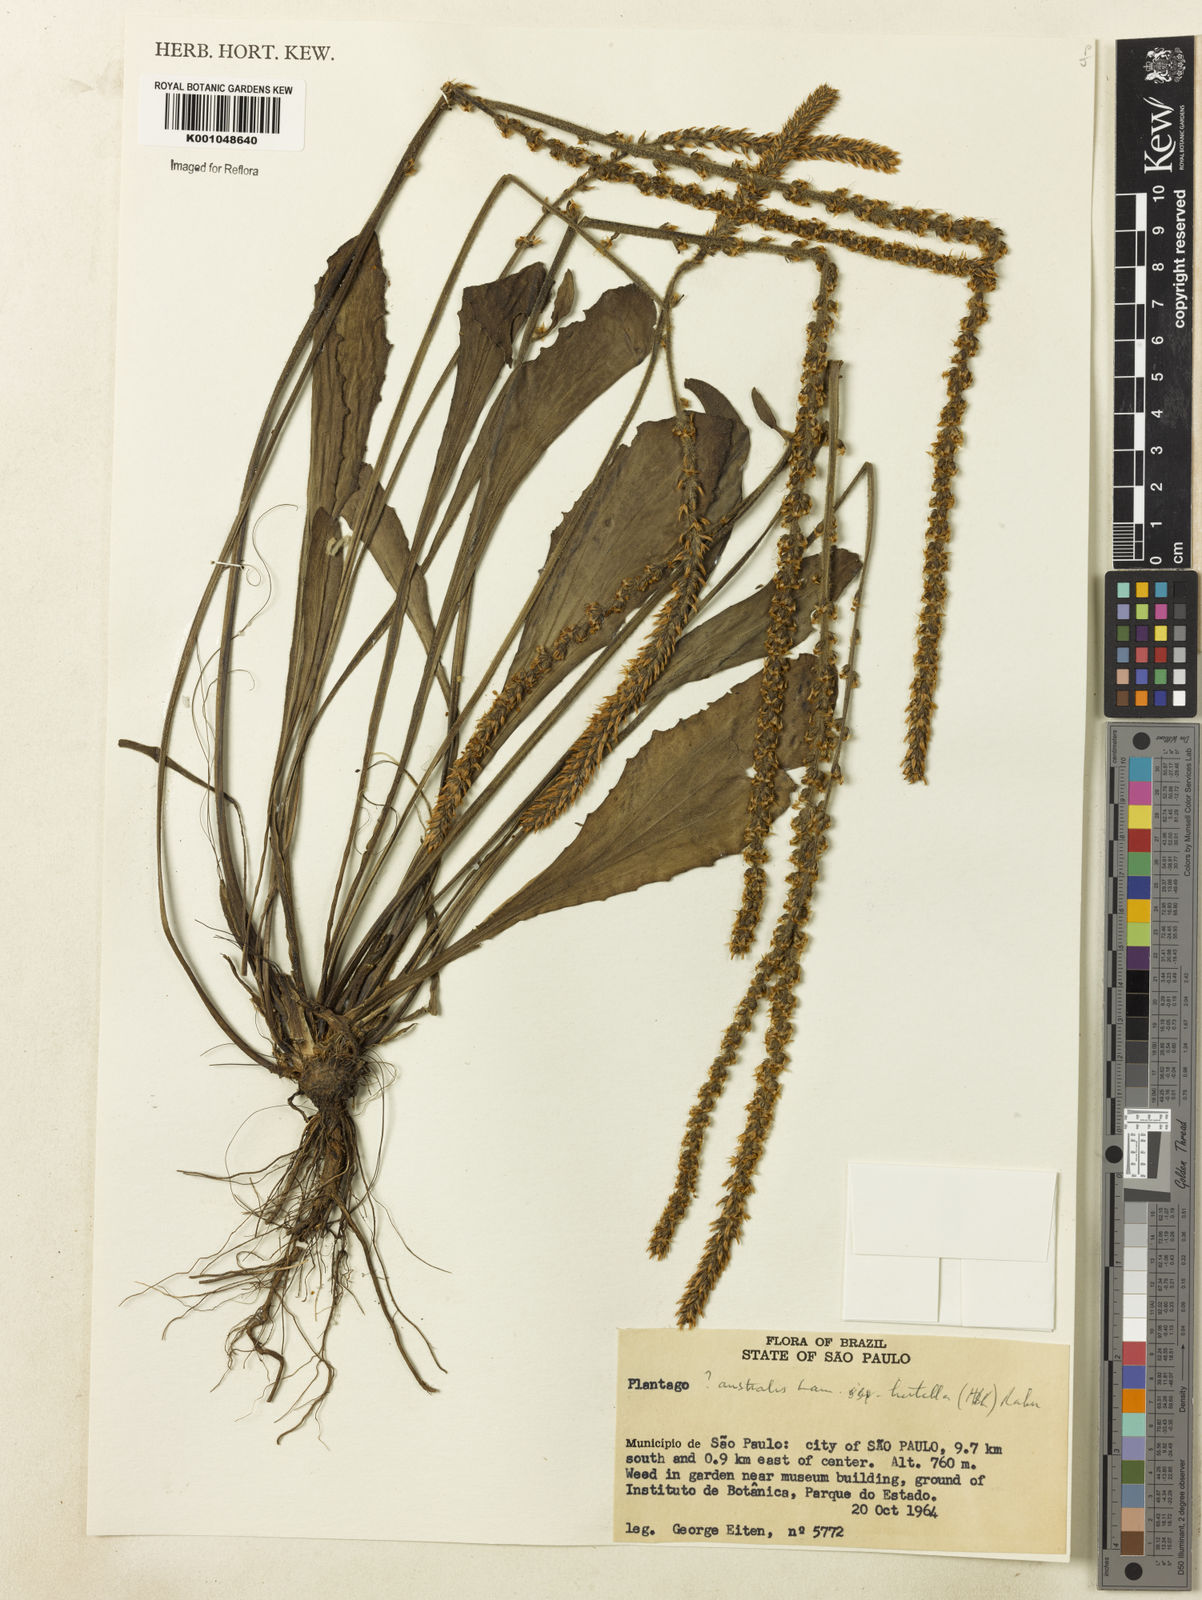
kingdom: Plantae
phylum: Tracheophyta
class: Magnoliopsida
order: Lamiales
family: Plantaginaceae
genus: Plantago
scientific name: Plantago australis
